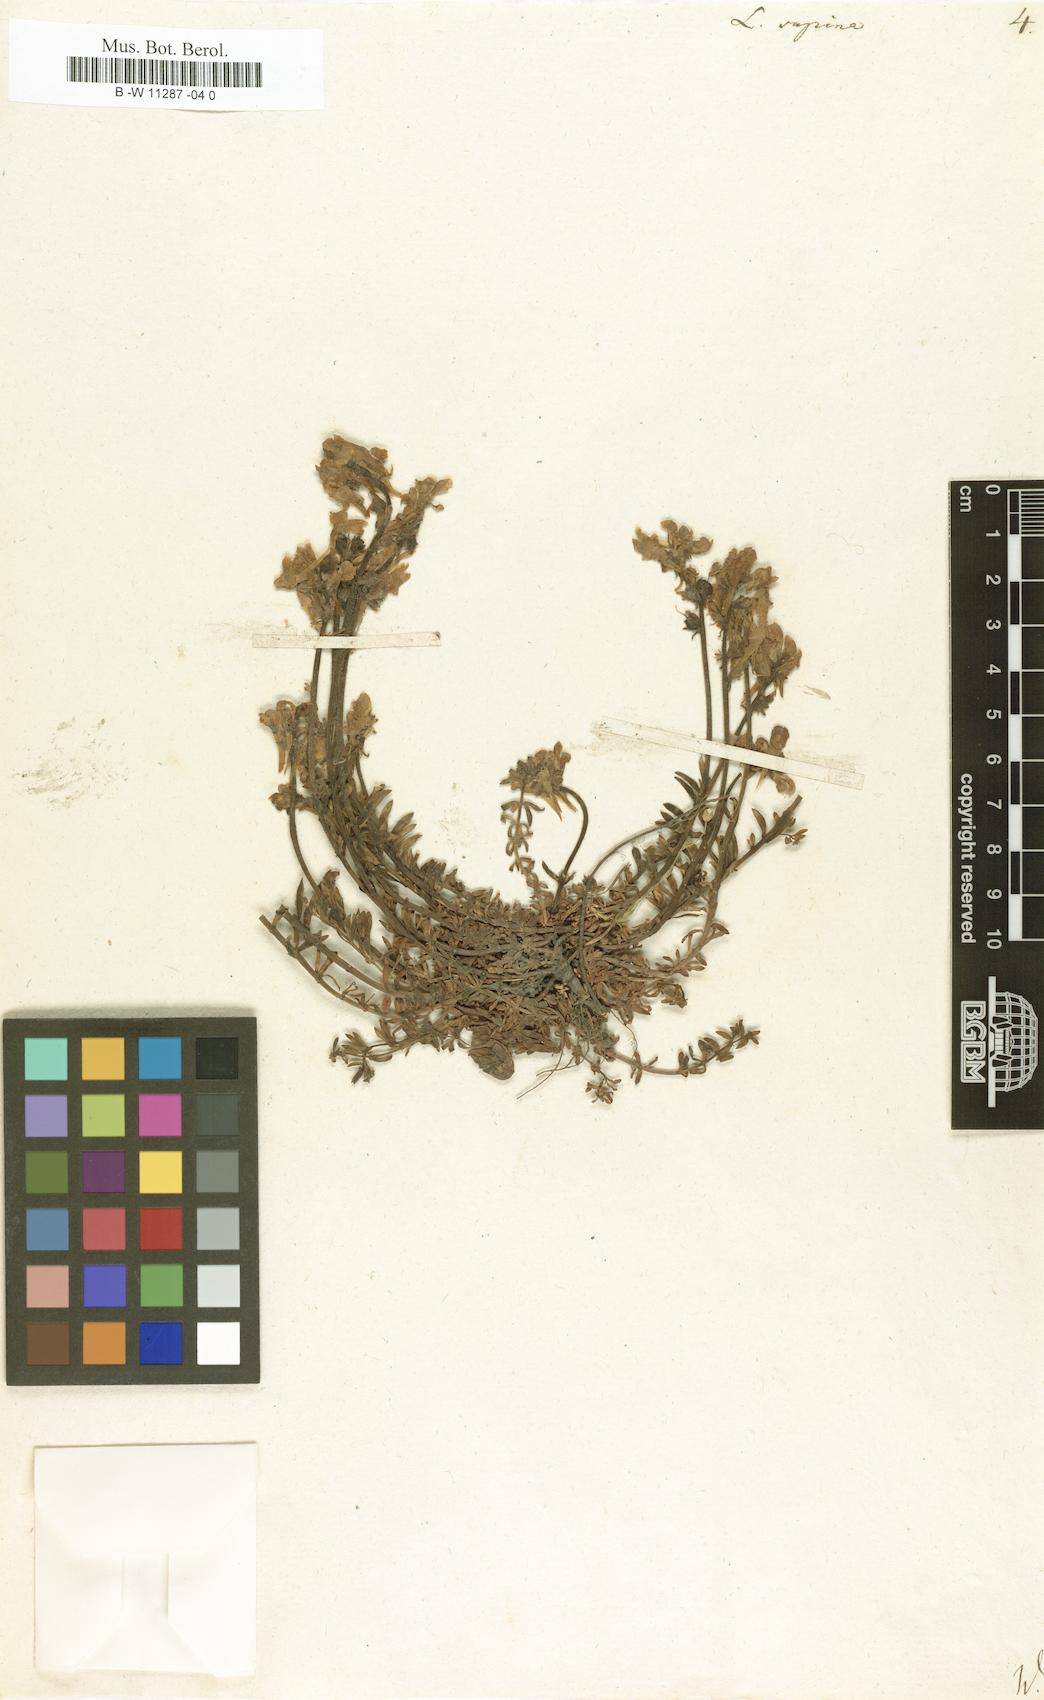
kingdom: Plantae
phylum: Tracheophyta
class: Magnoliopsida
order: Lamiales
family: Plantaginaceae
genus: Linaria
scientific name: Linaria supina
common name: Prostrate toadflax
